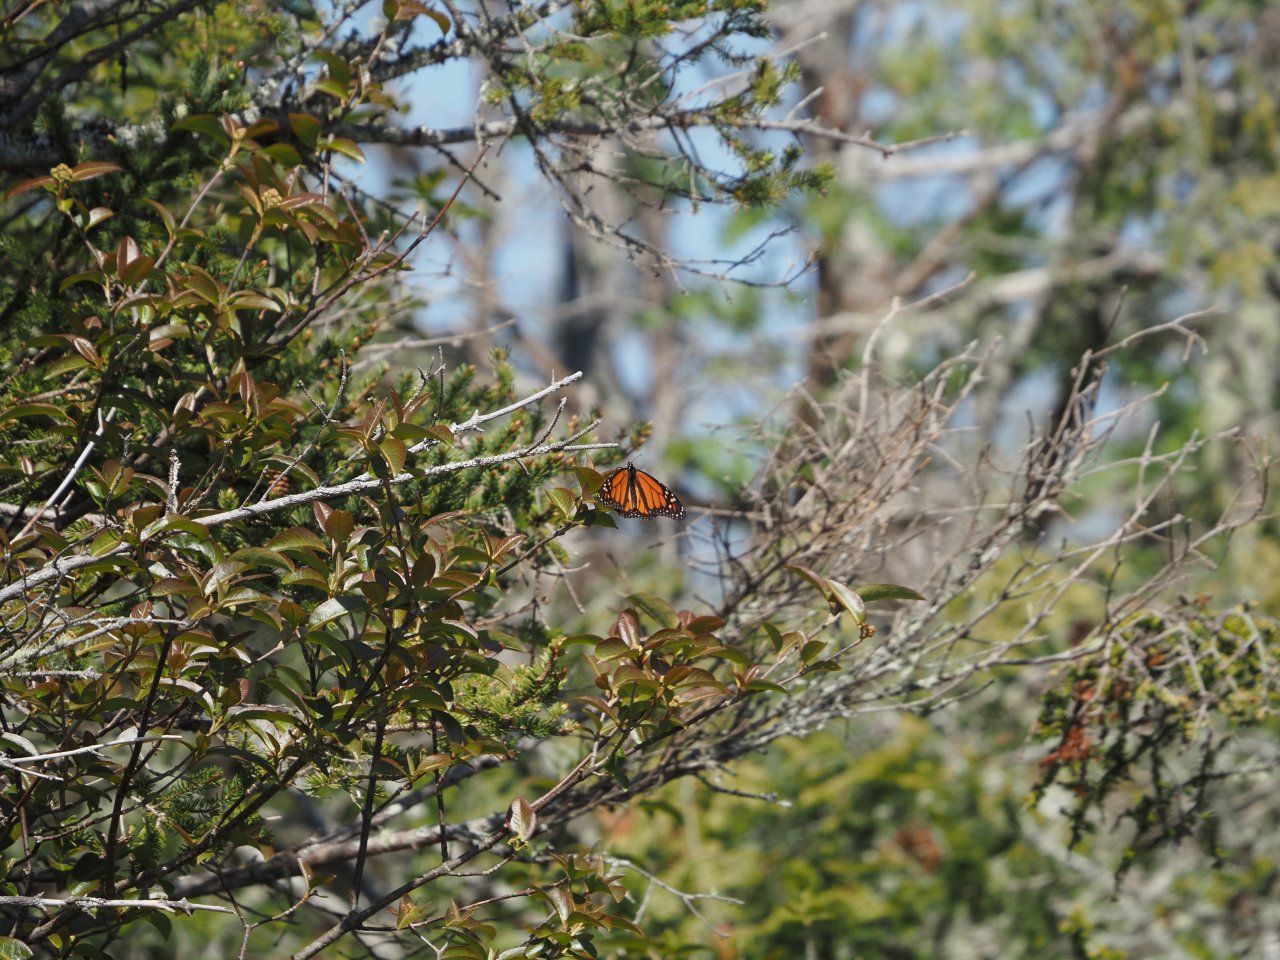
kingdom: Animalia
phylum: Arthropoda
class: Insecta
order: Lepidoptera
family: Nymphalidae
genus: Danaus
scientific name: Danaus plexippus
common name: Monarch
